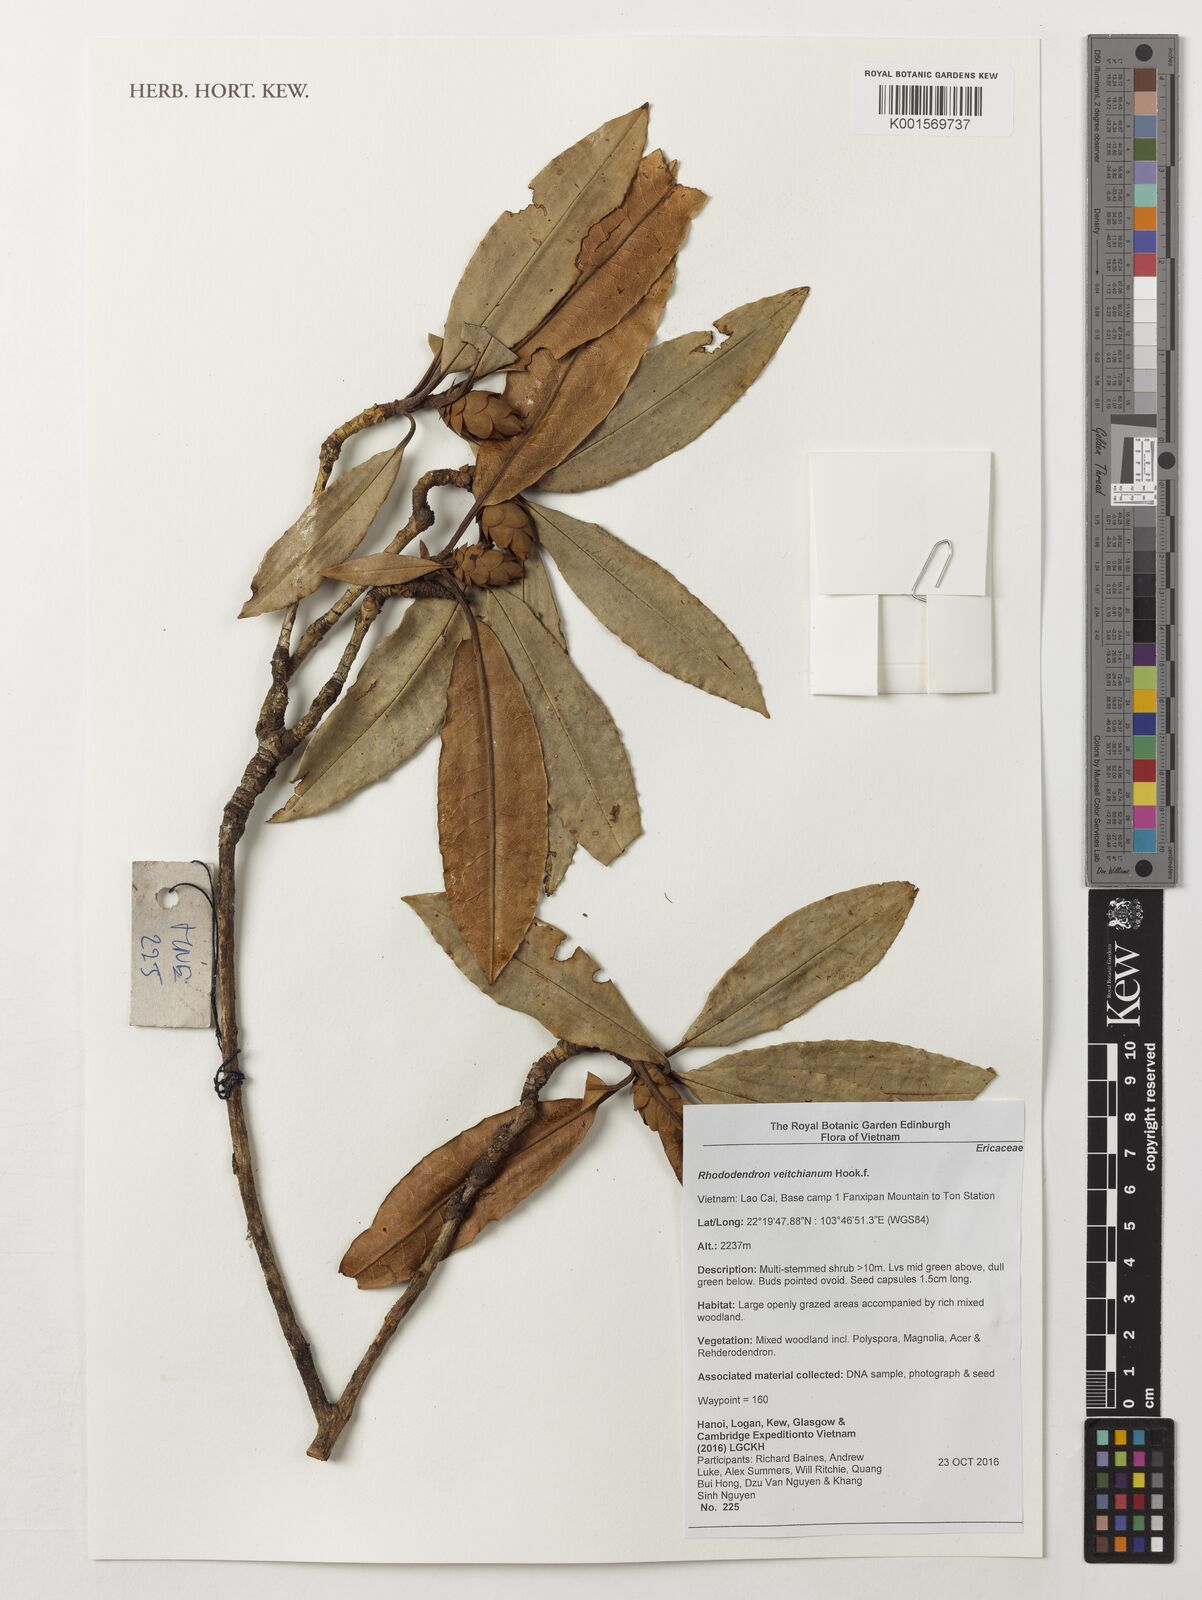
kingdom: Plantae
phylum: Tracheophyta
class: Magnoliopsida
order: Ericales
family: Ericaceae
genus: Rhododendron
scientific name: Rhododendron veitchianum
